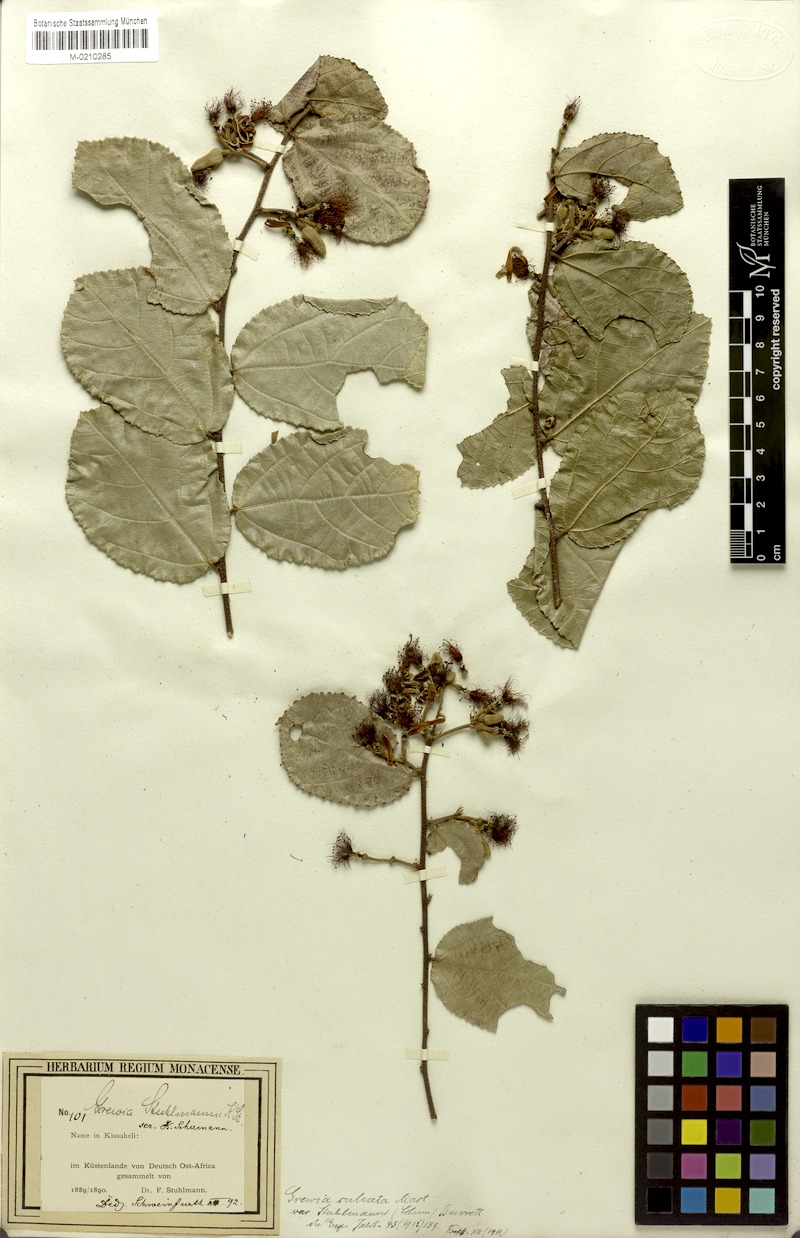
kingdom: Plantae
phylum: Tracheophyta
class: Magnoliopsida
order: Malvales
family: Malvaceae
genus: Grewia
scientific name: Grewia stuhlmannii
